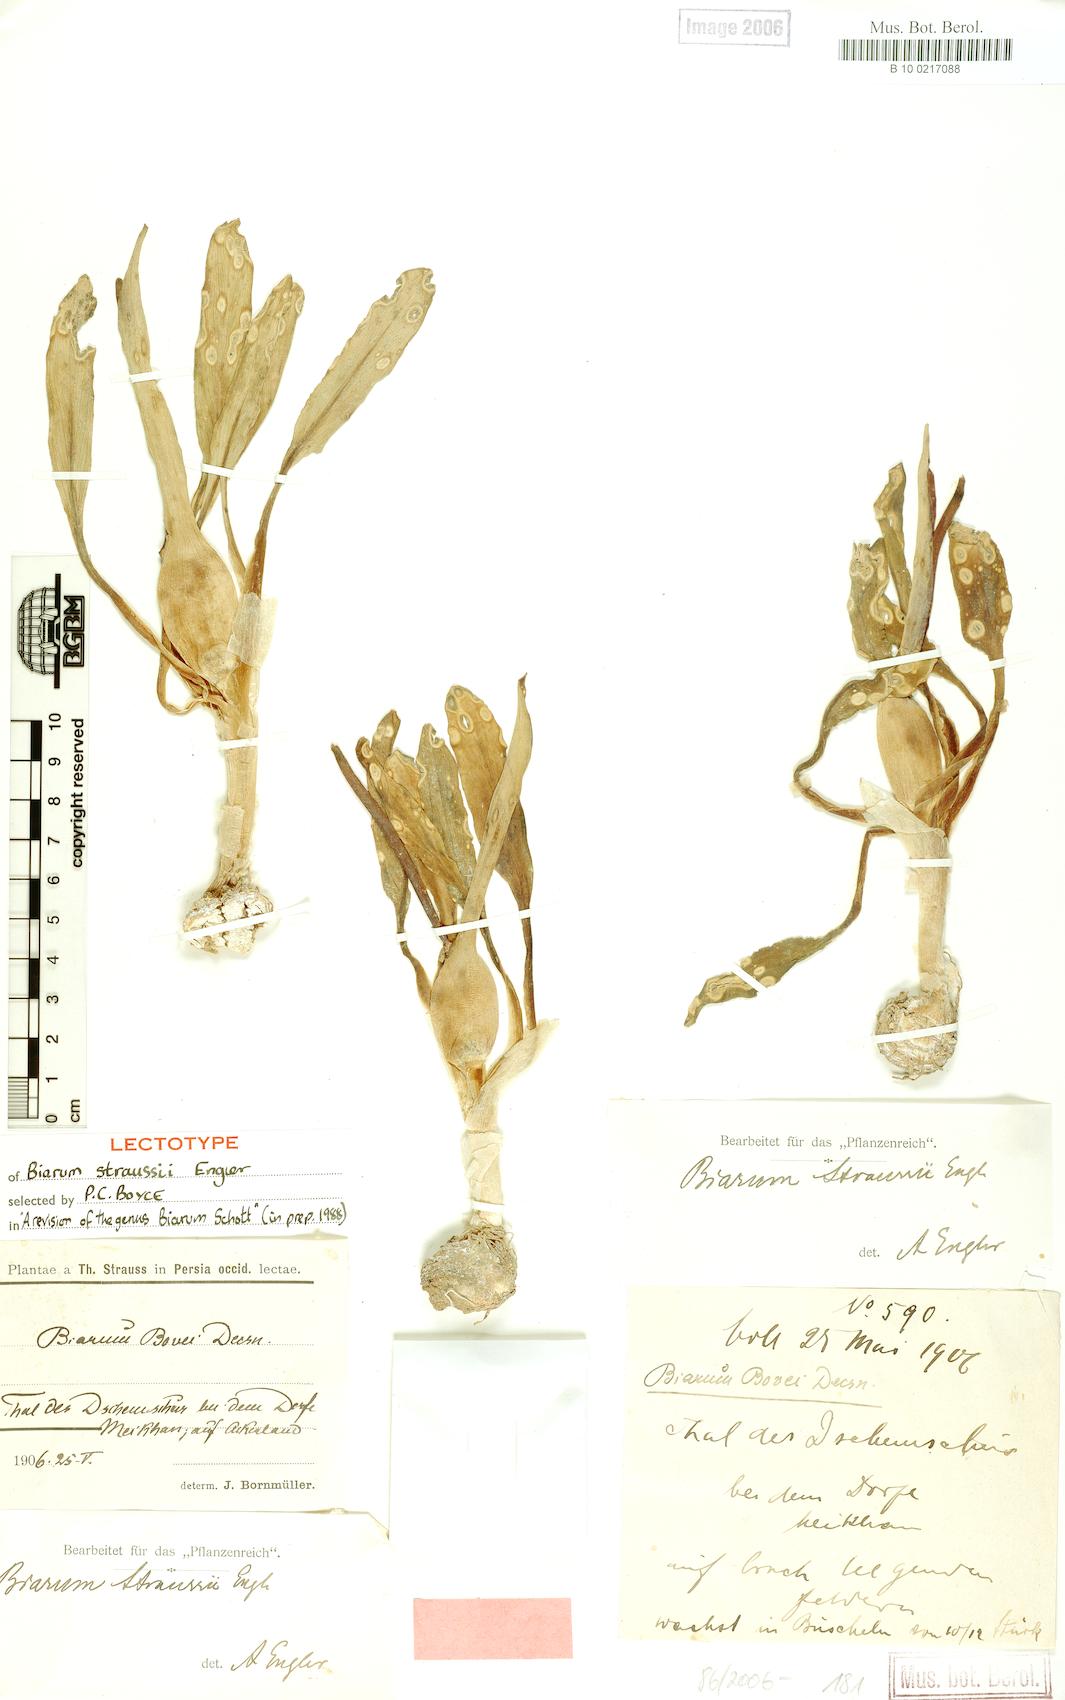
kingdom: Plantae
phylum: Tracheophyta
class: Liliopsida
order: Alismatales
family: Araceae
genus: Biarum
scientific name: Biarum straussii
